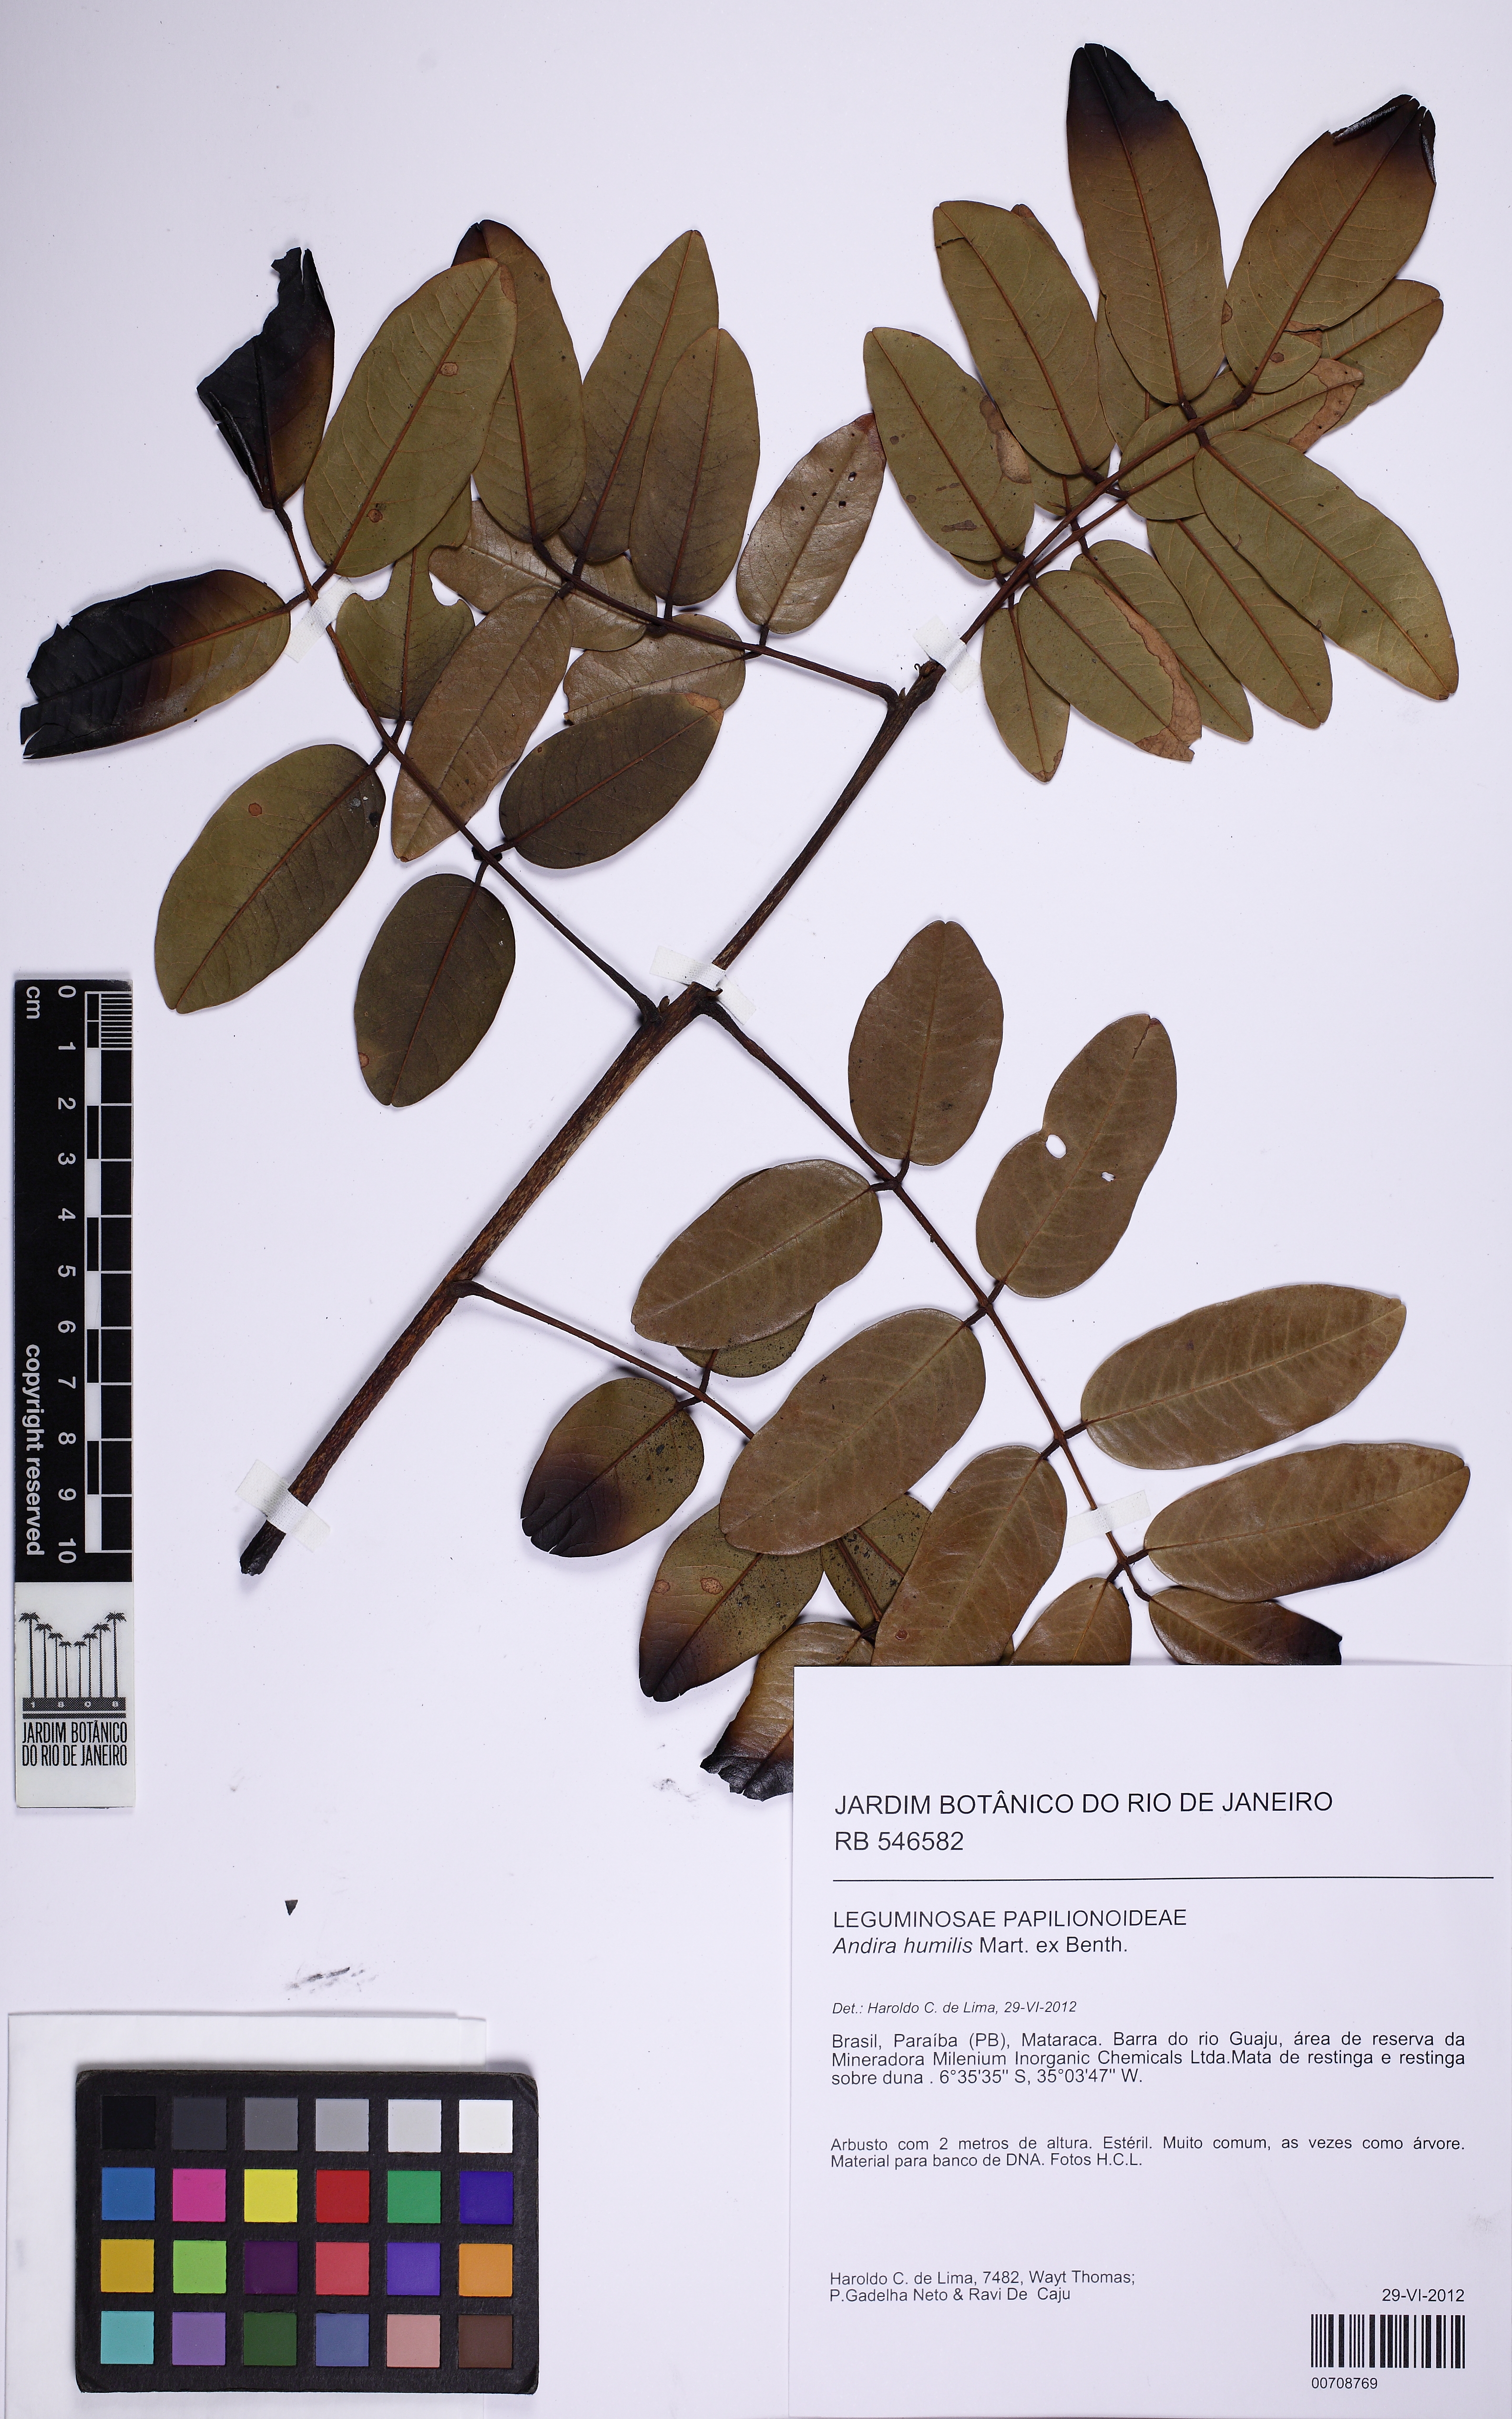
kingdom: Plantae
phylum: Tracheophyta
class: Magnoliopsida
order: Fabales
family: Fabaceae
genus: Andira
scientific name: Andira humilis
